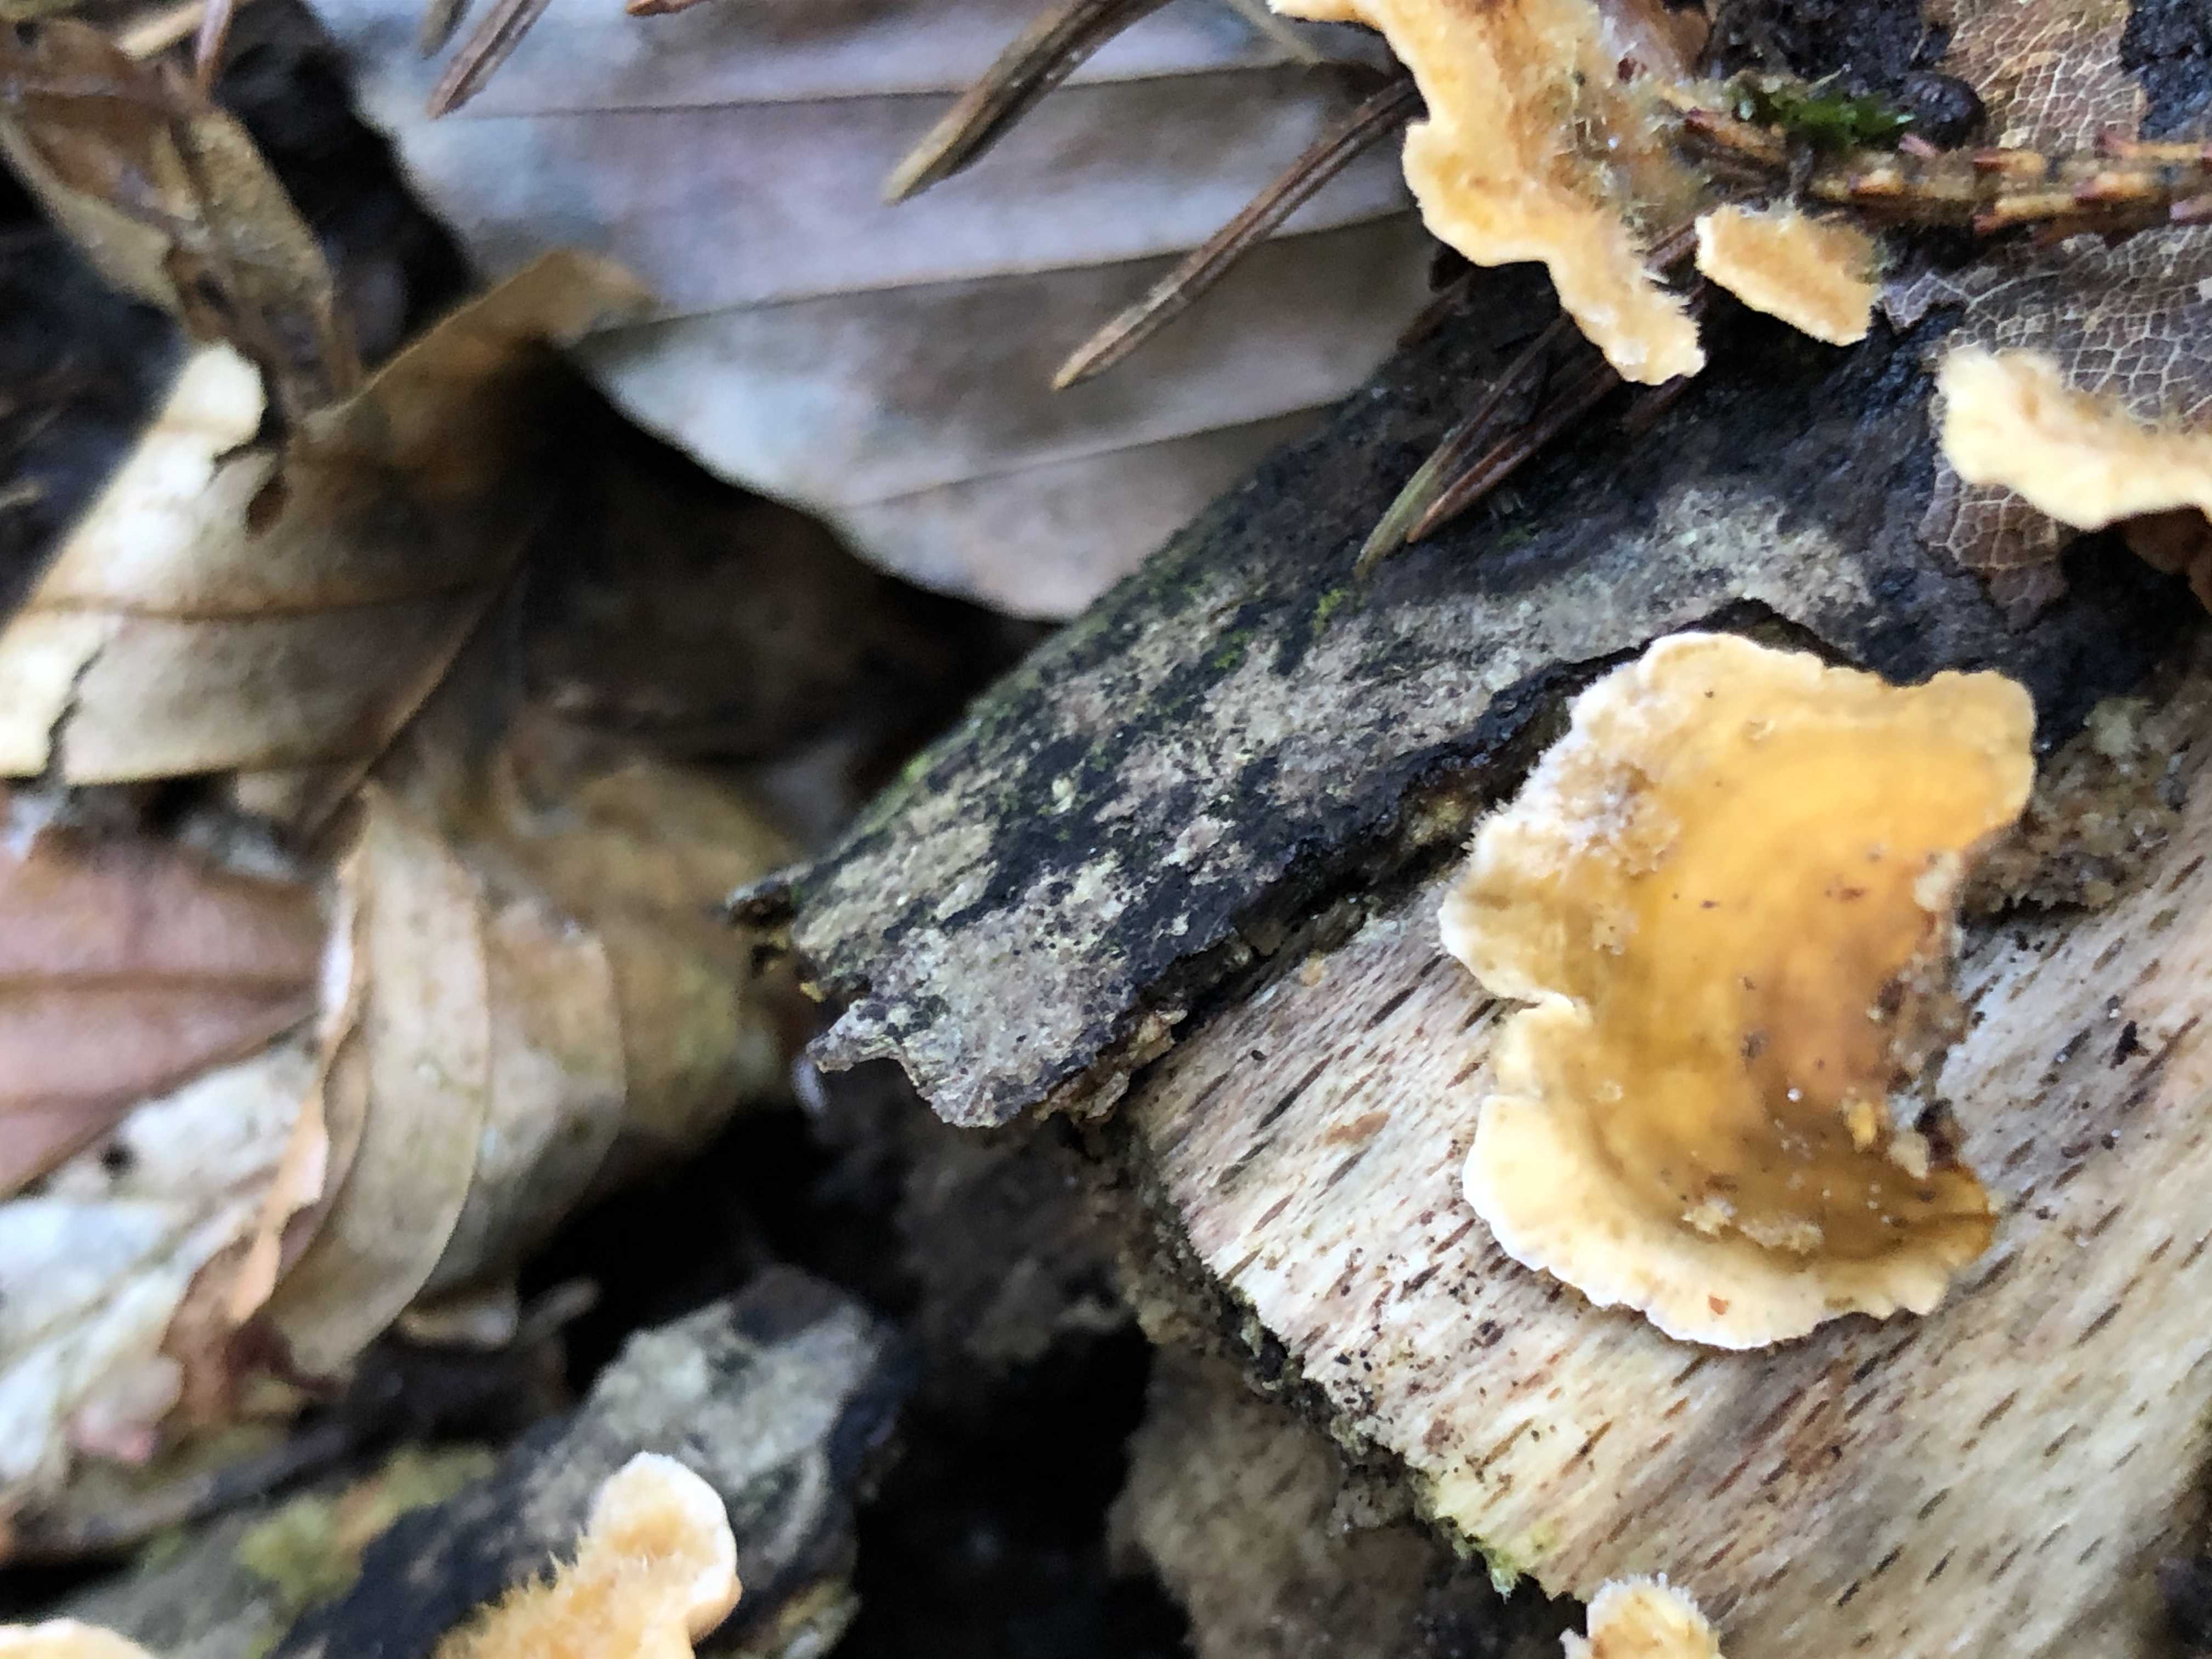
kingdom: Fungi
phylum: Basidiomycota
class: Agaricomycetes
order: Russulales
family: Stereaceae
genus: Stereum
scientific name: Stereum hirsutum
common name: håret lædersvamp
